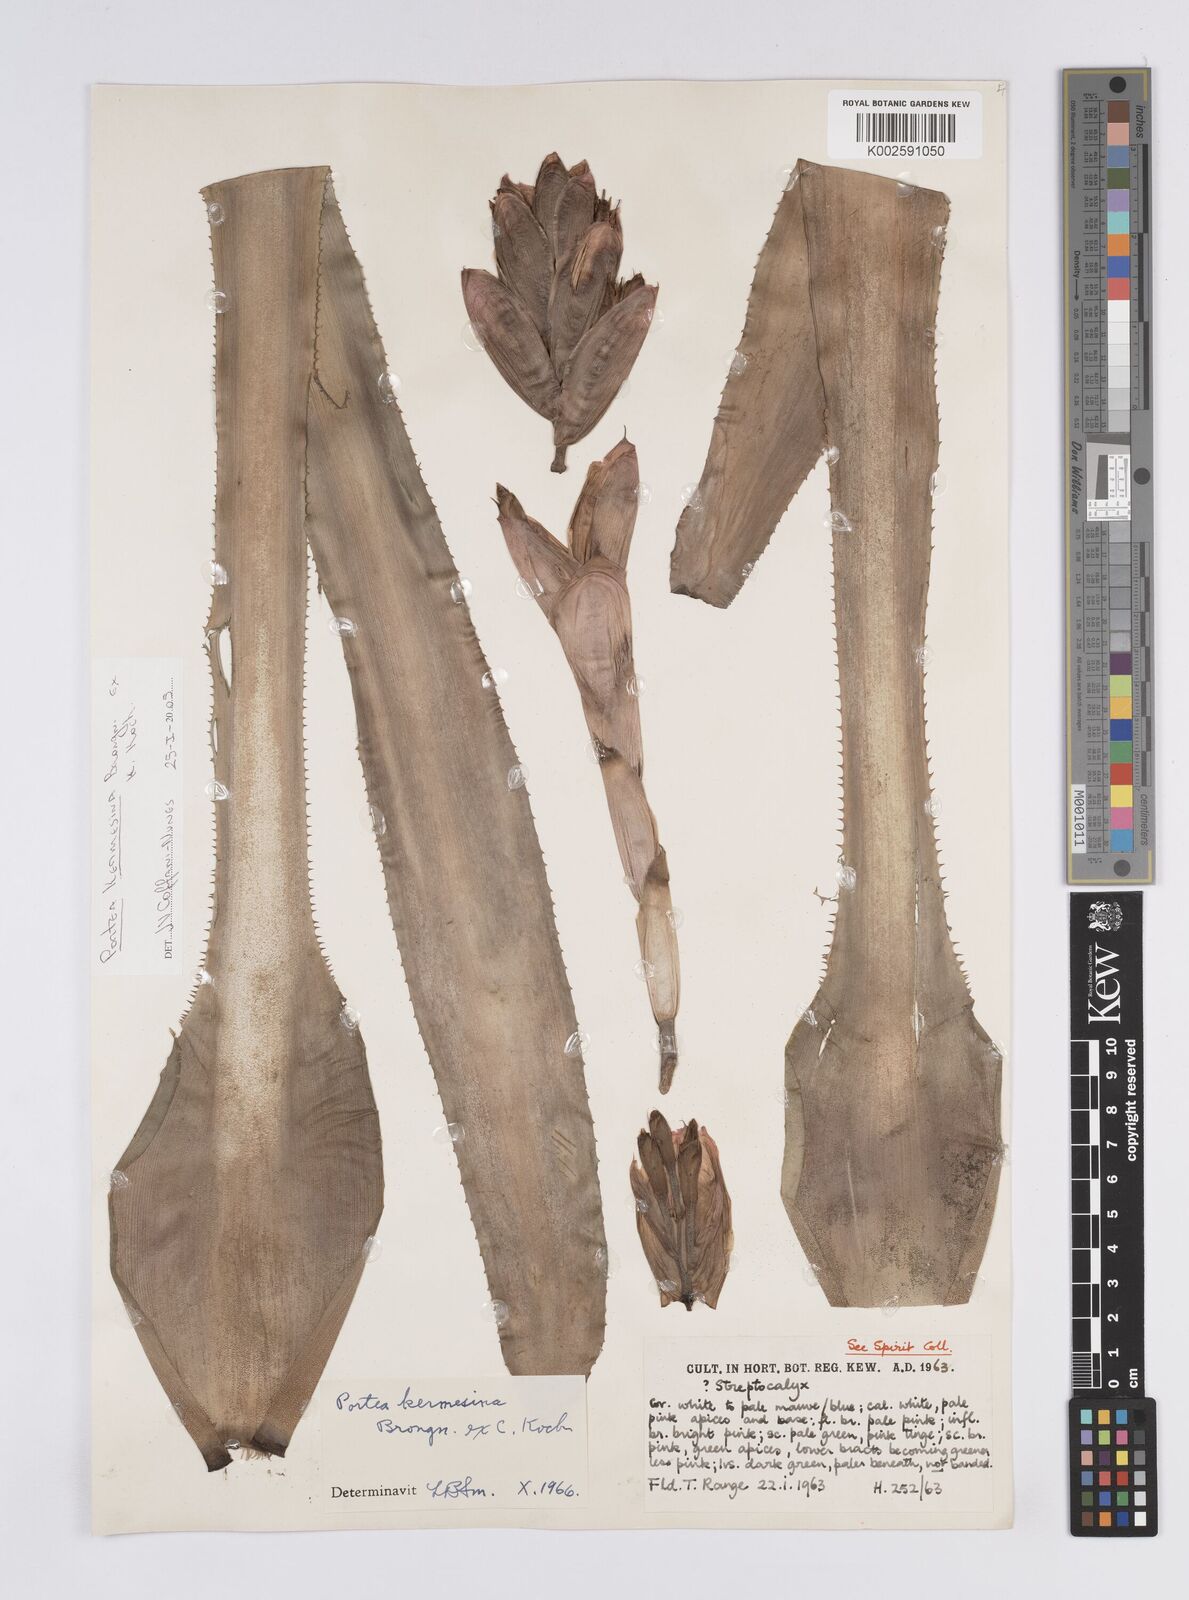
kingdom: Plantae
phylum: Tracheophyta
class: Liliopsida
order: Poales
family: Bromeliaceae
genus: Portea
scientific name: Portea
